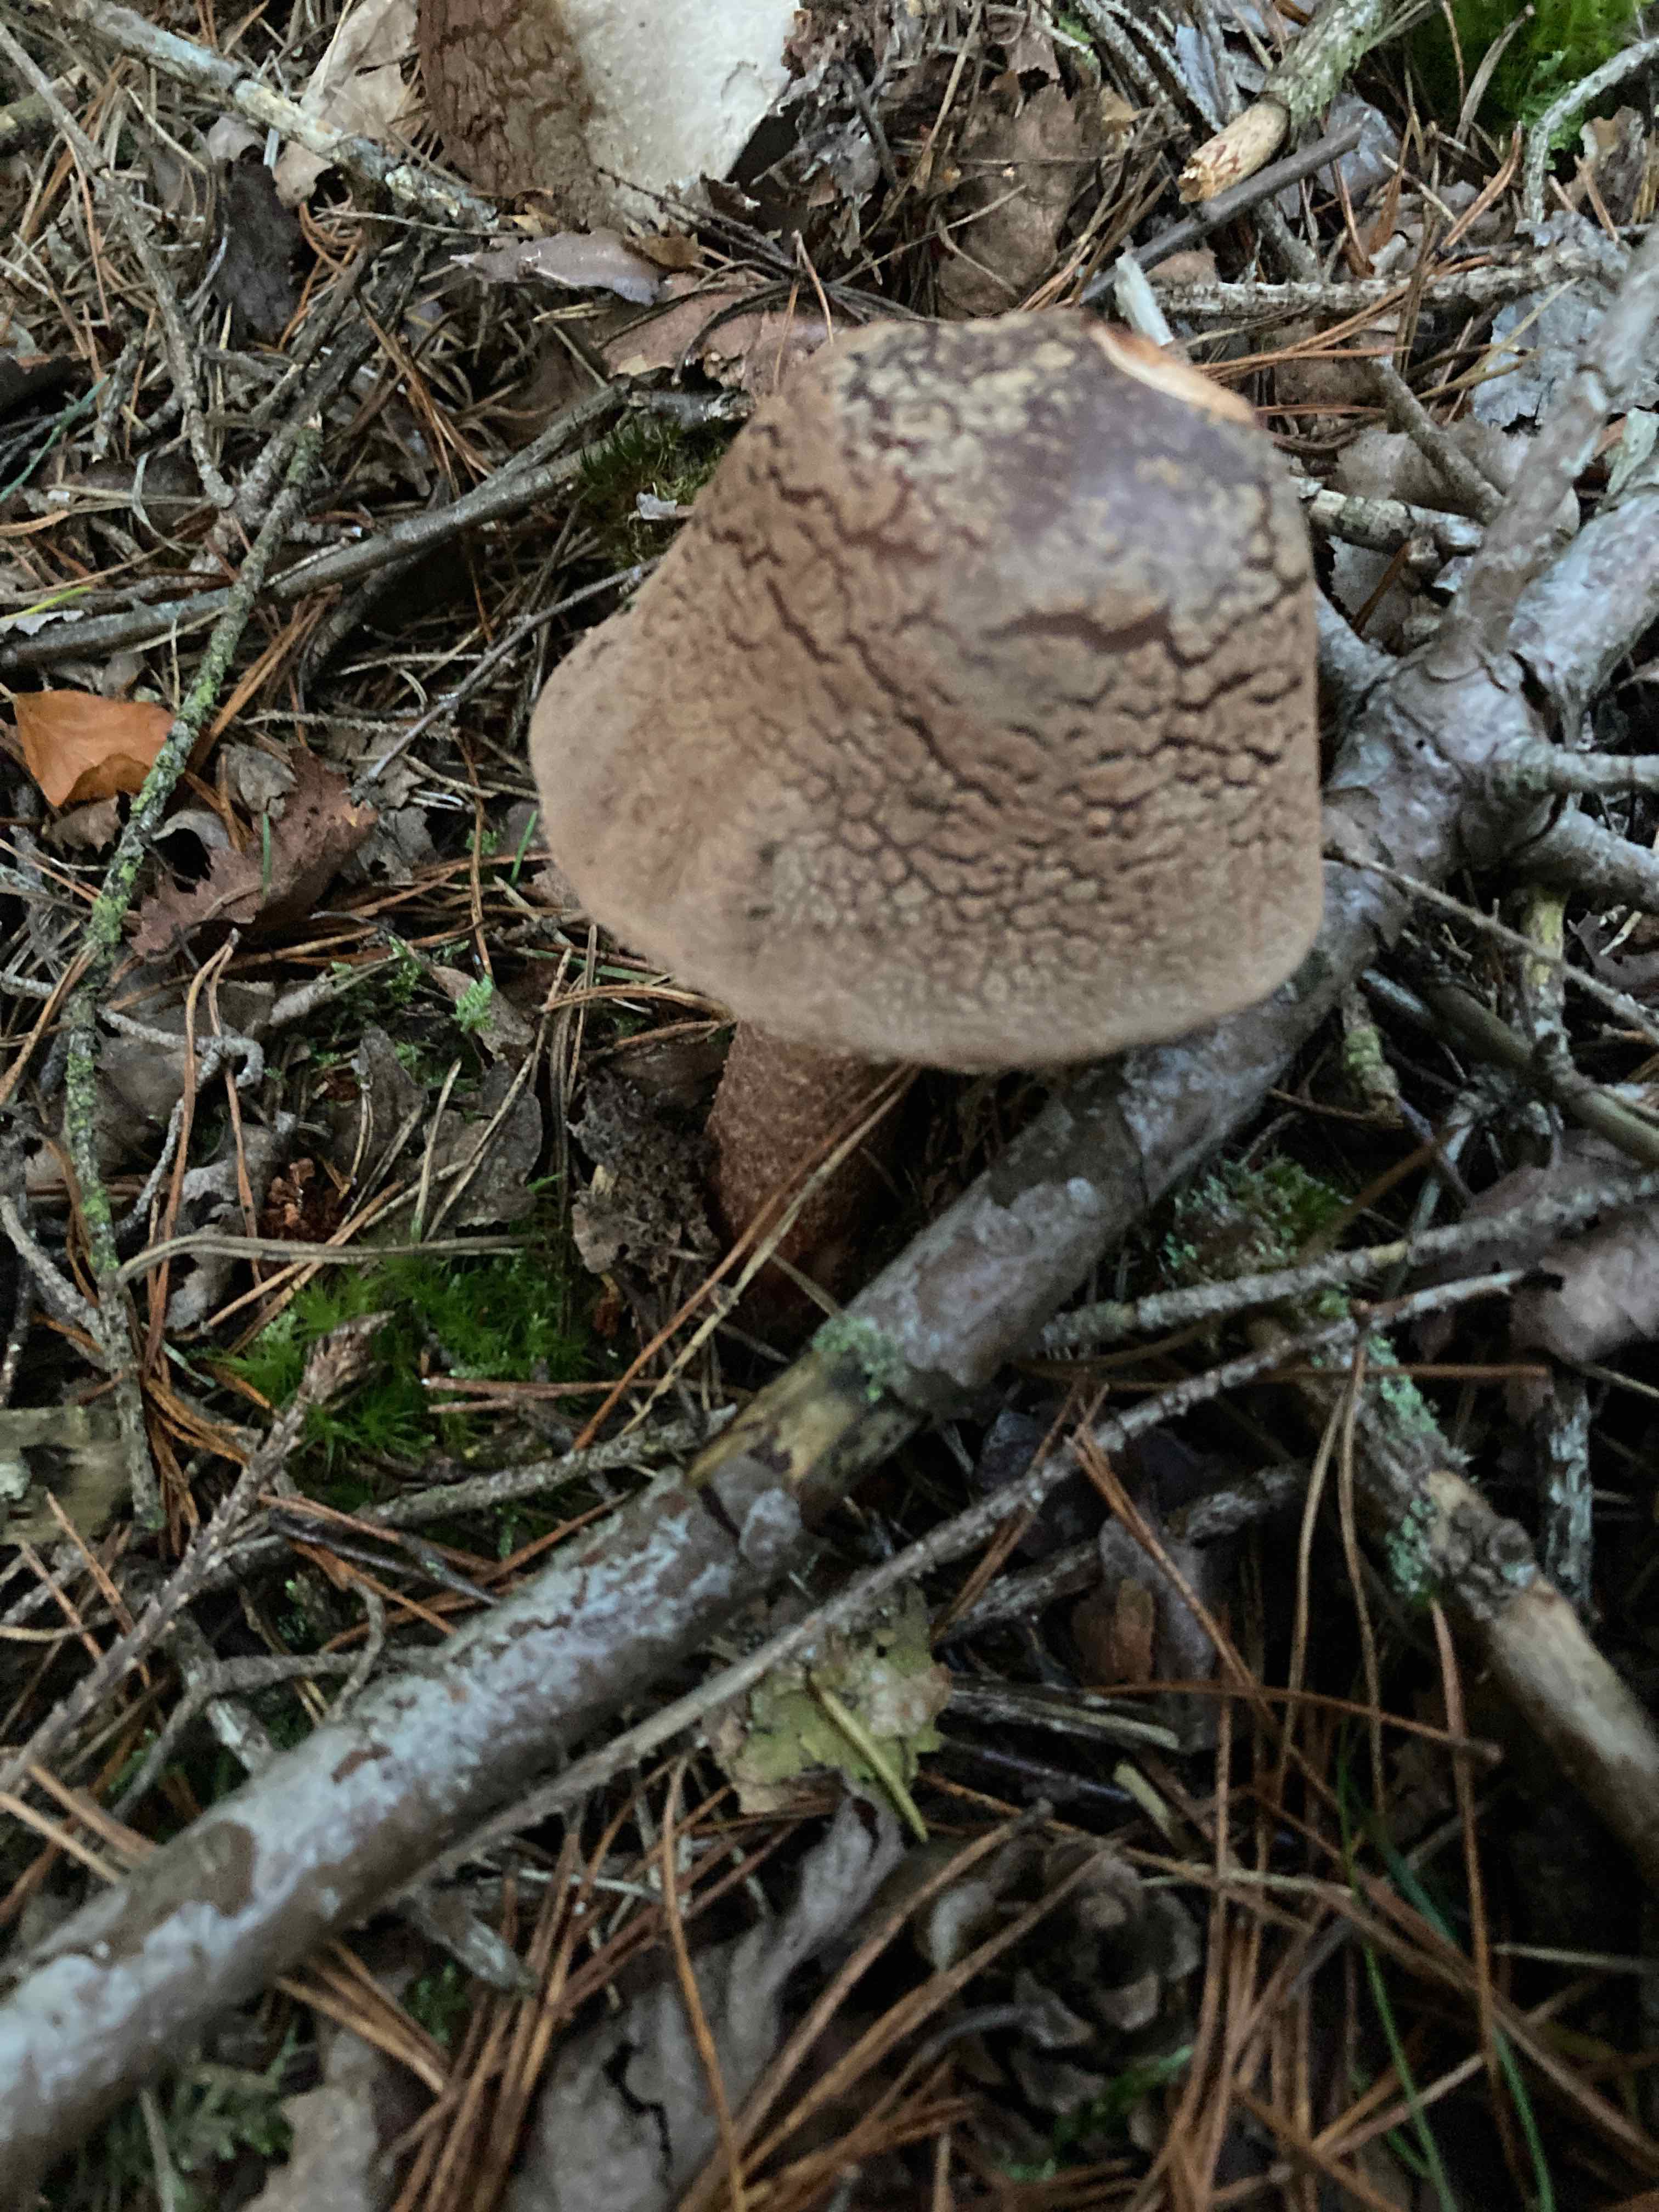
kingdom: Fungi
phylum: Basidiomycota
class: Agaricomycetes
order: Agaricales
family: Amanitaceae
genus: Amanita
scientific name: Amanita rubescens
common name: rødmende fluesvamp
